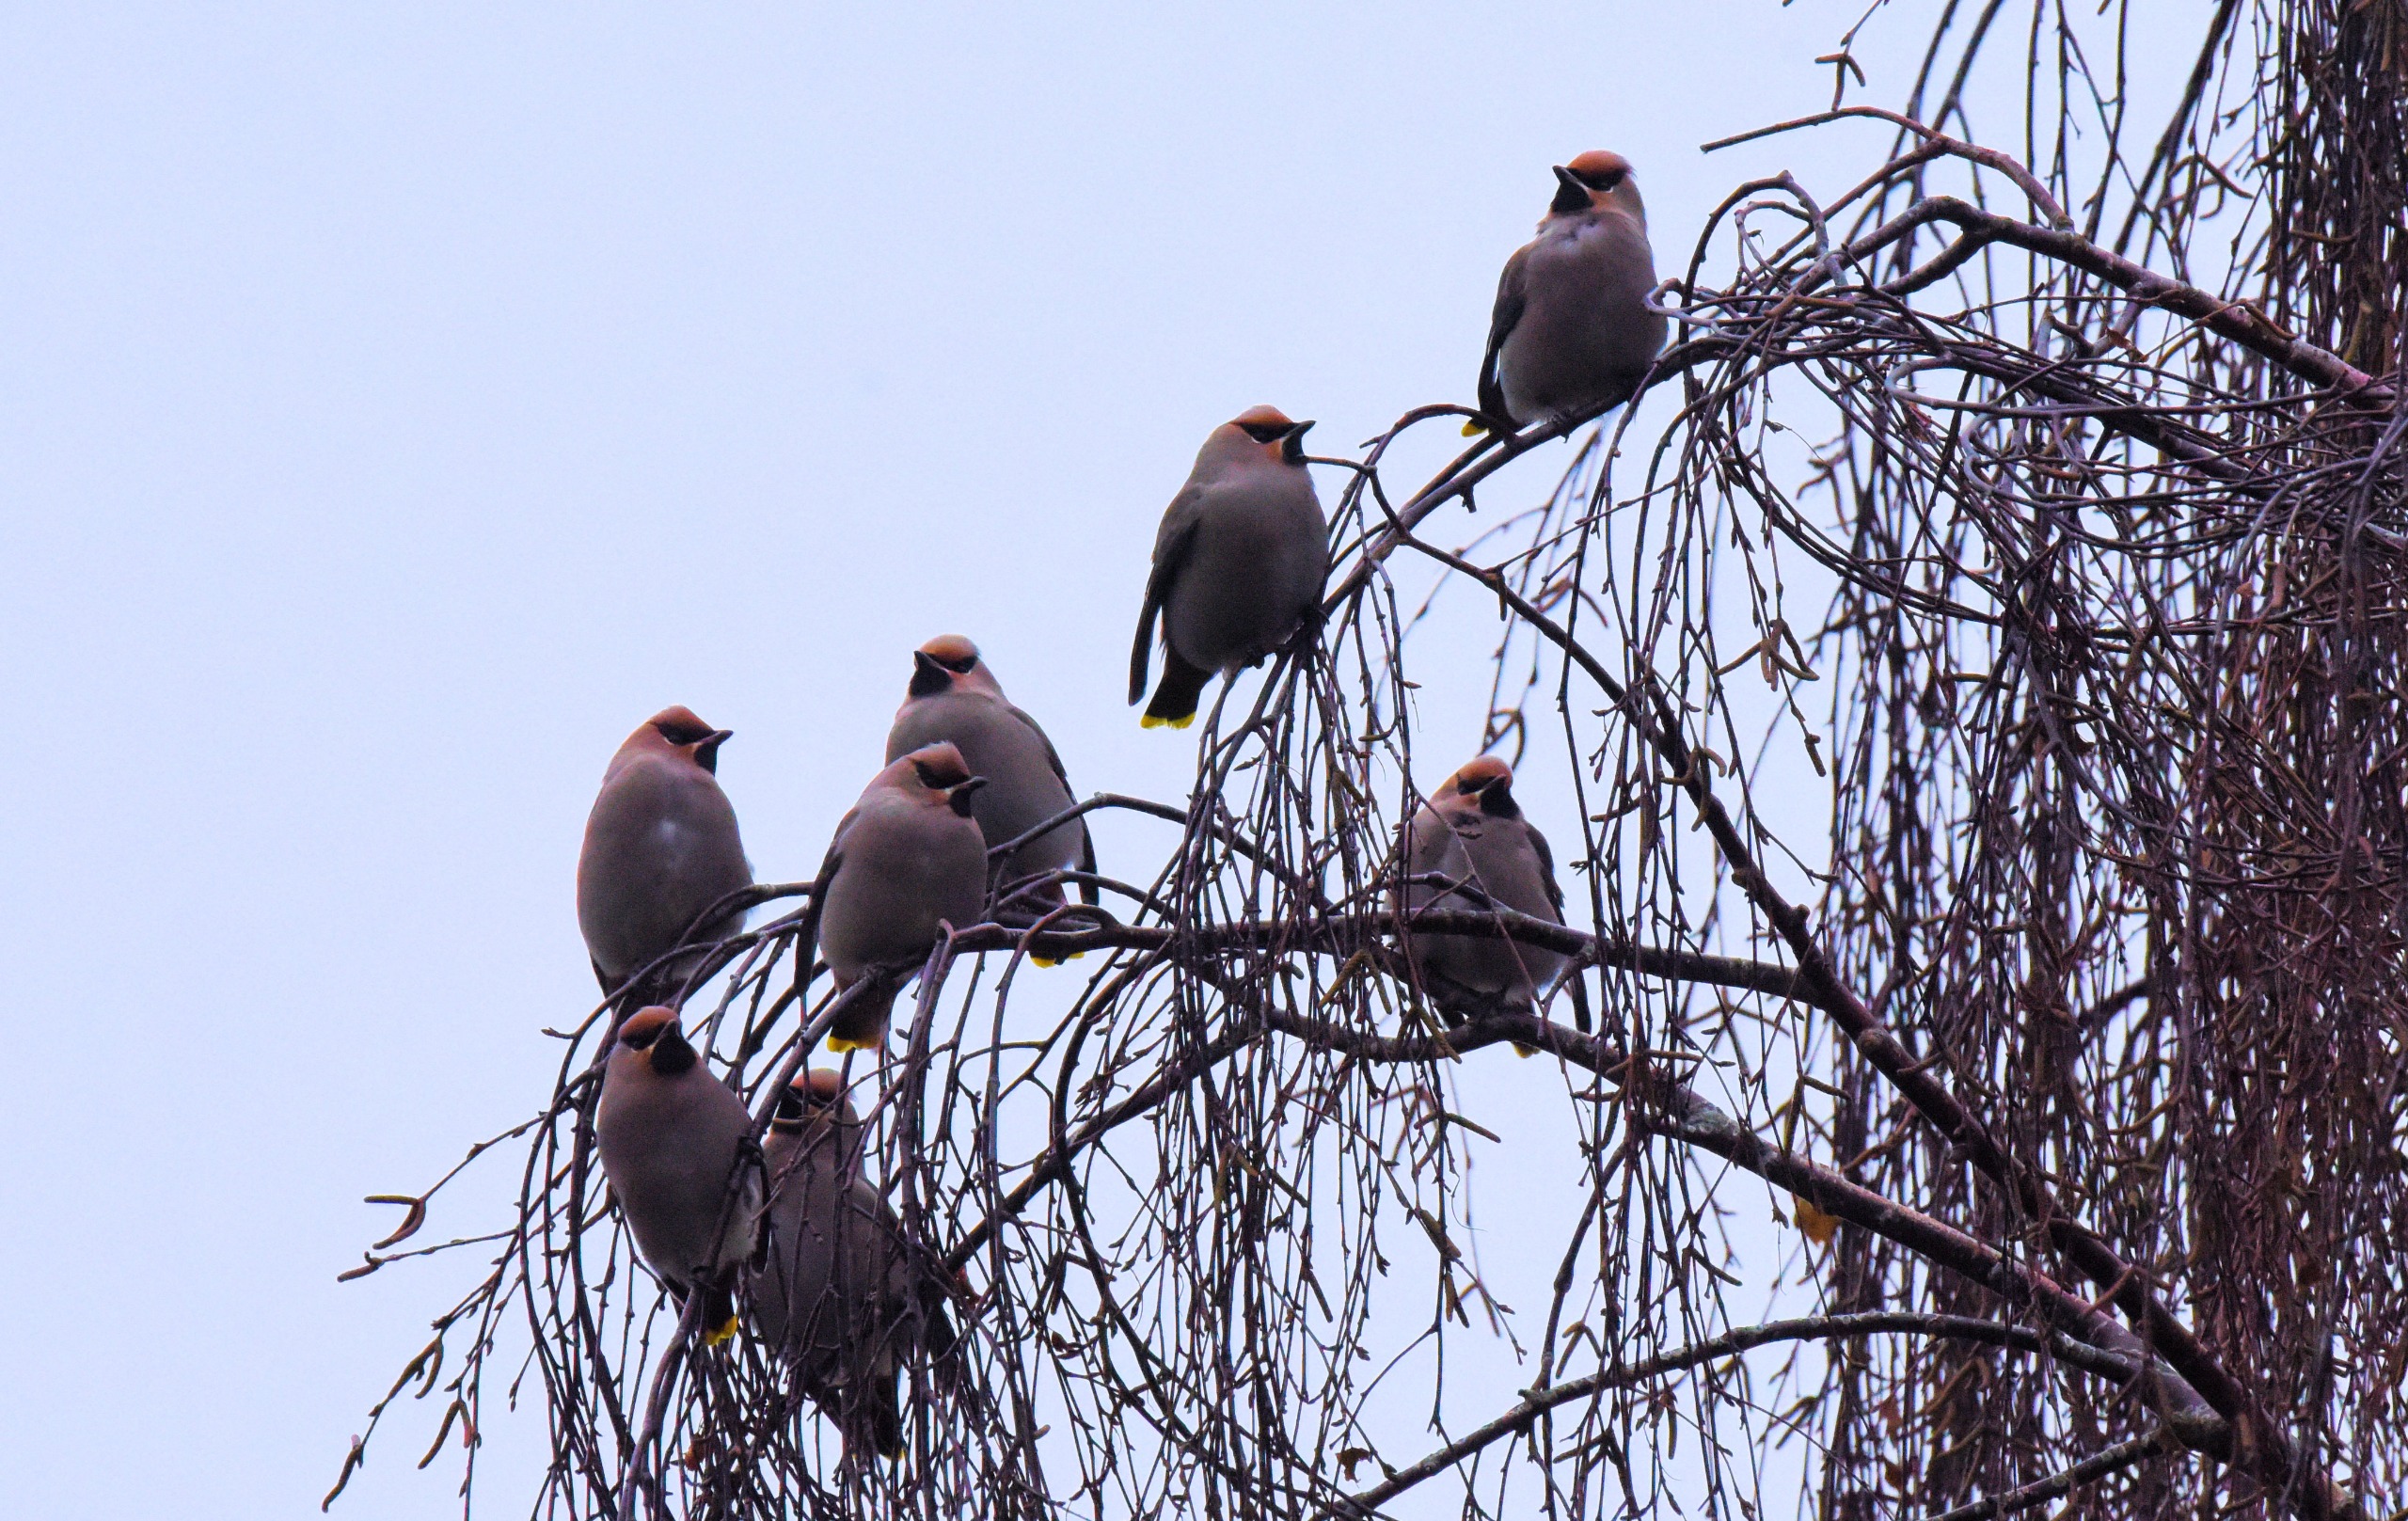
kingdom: Animalia
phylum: Chordata
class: Aves
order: Passeriformes
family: Bombycillidae
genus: Bombycilla
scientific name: Bombycilla garrulus
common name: Silkehale
